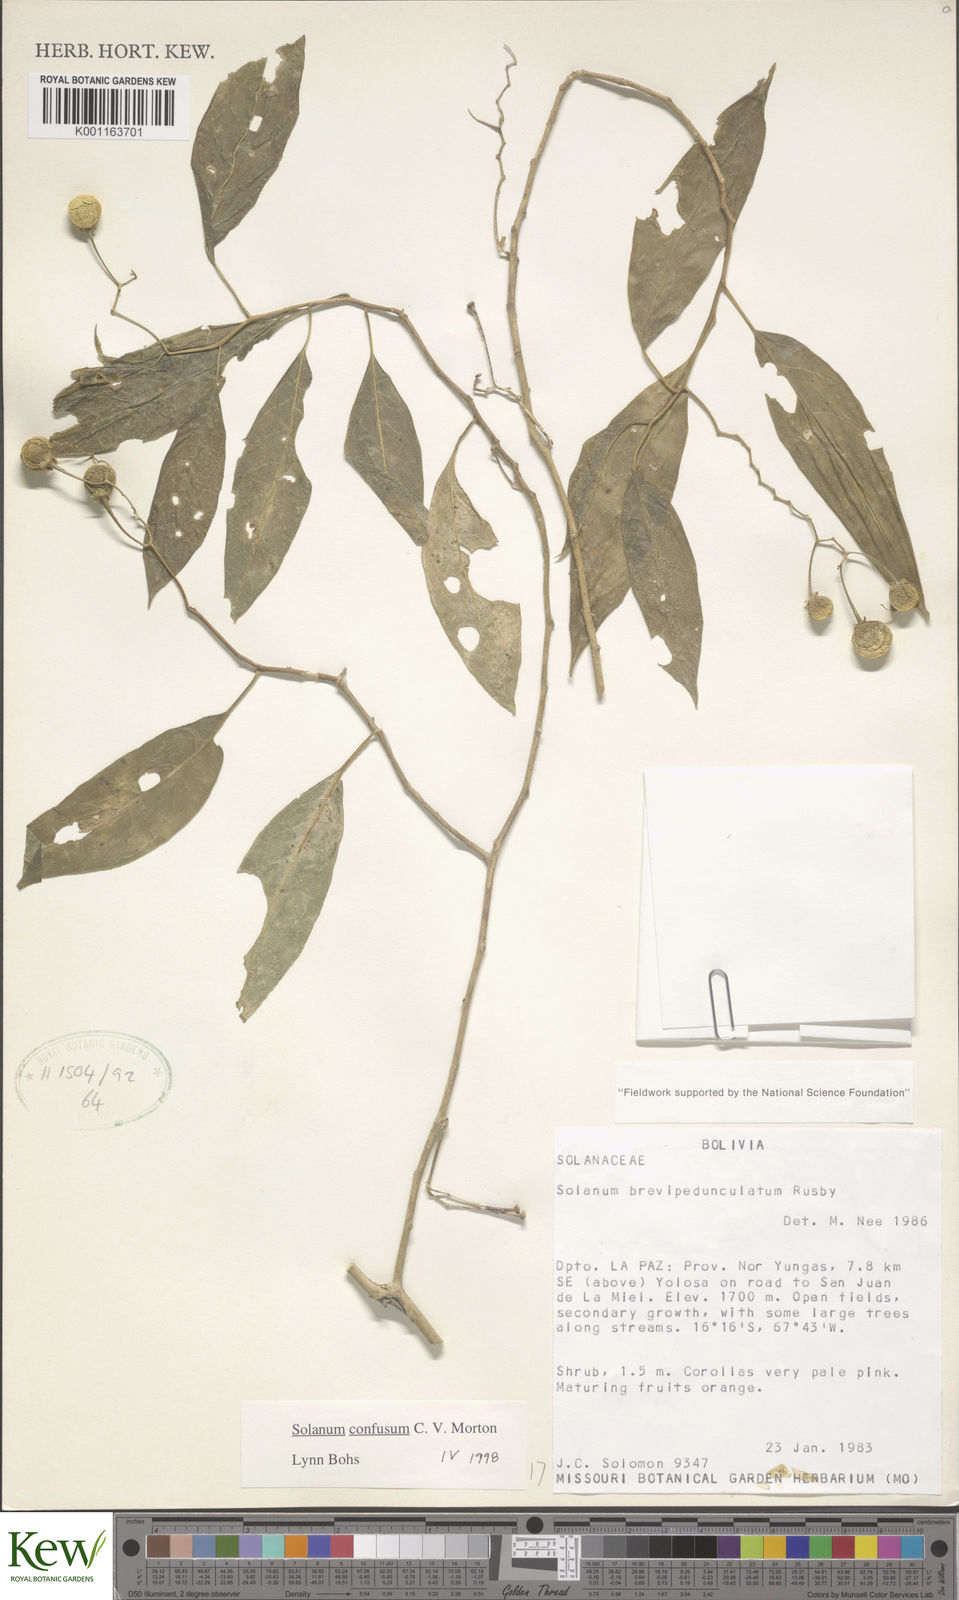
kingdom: Plantae
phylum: Tracheophyta
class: Magnoliopsida
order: Solanales
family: Solanaceae
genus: Solanum
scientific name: Solanum confusum
